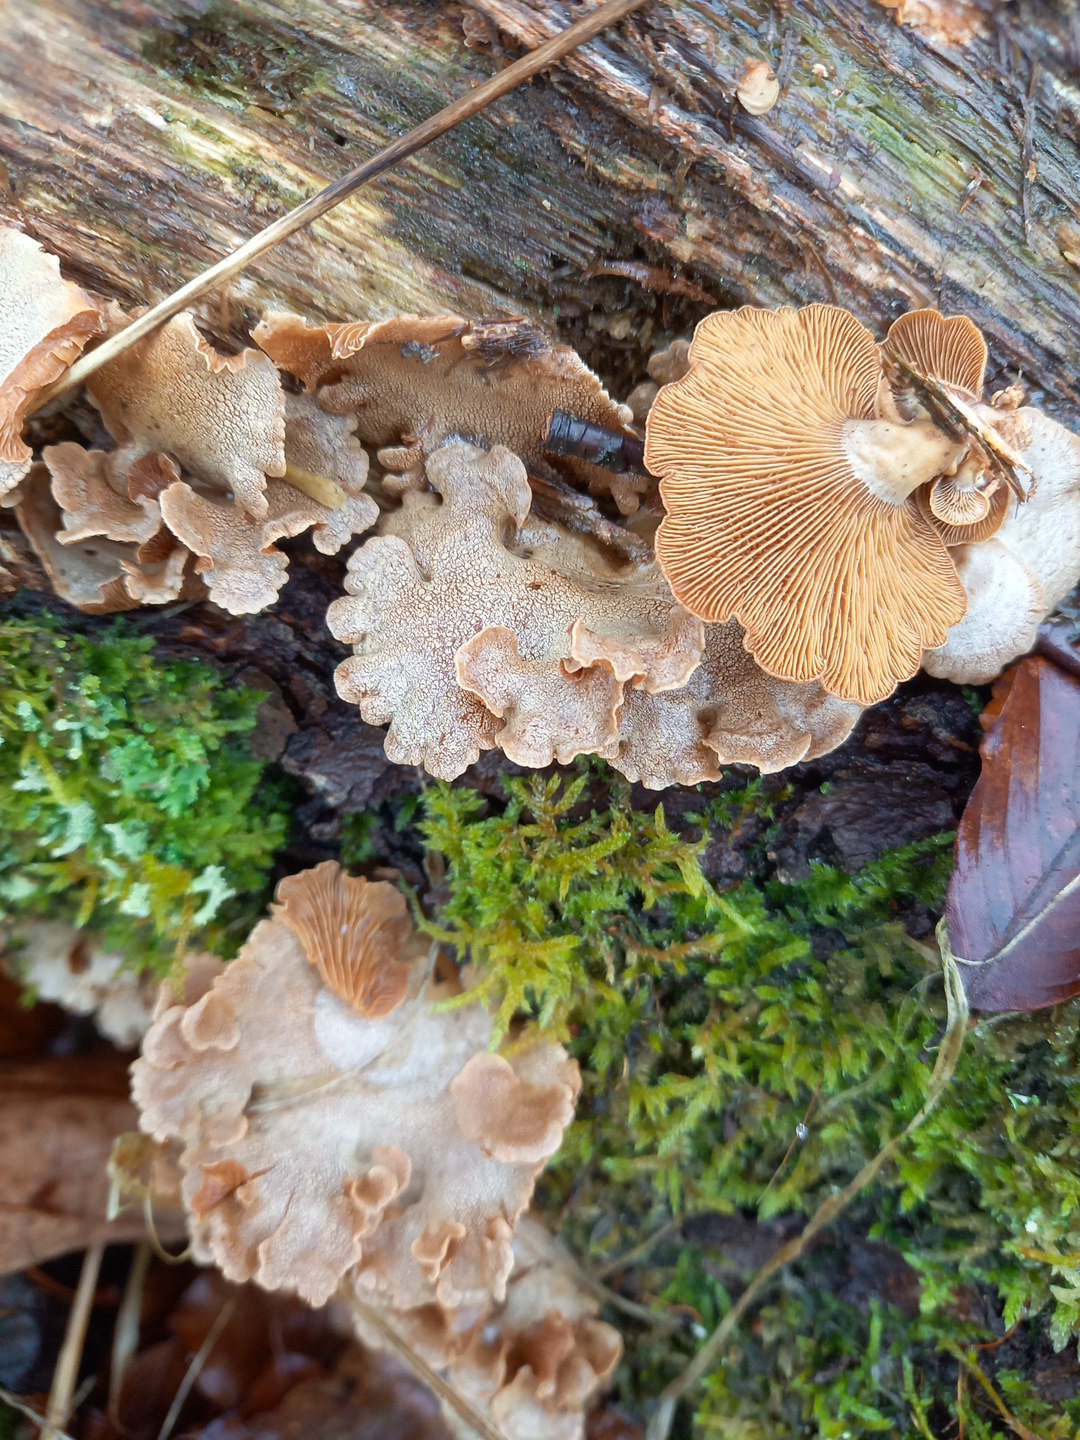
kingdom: Fungi
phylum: Basidiomycota
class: Agaricomycetes
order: Agaricales
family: Mycenaceae
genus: Panellus
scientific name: Panellus stipticus
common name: kliddet epaulethat
